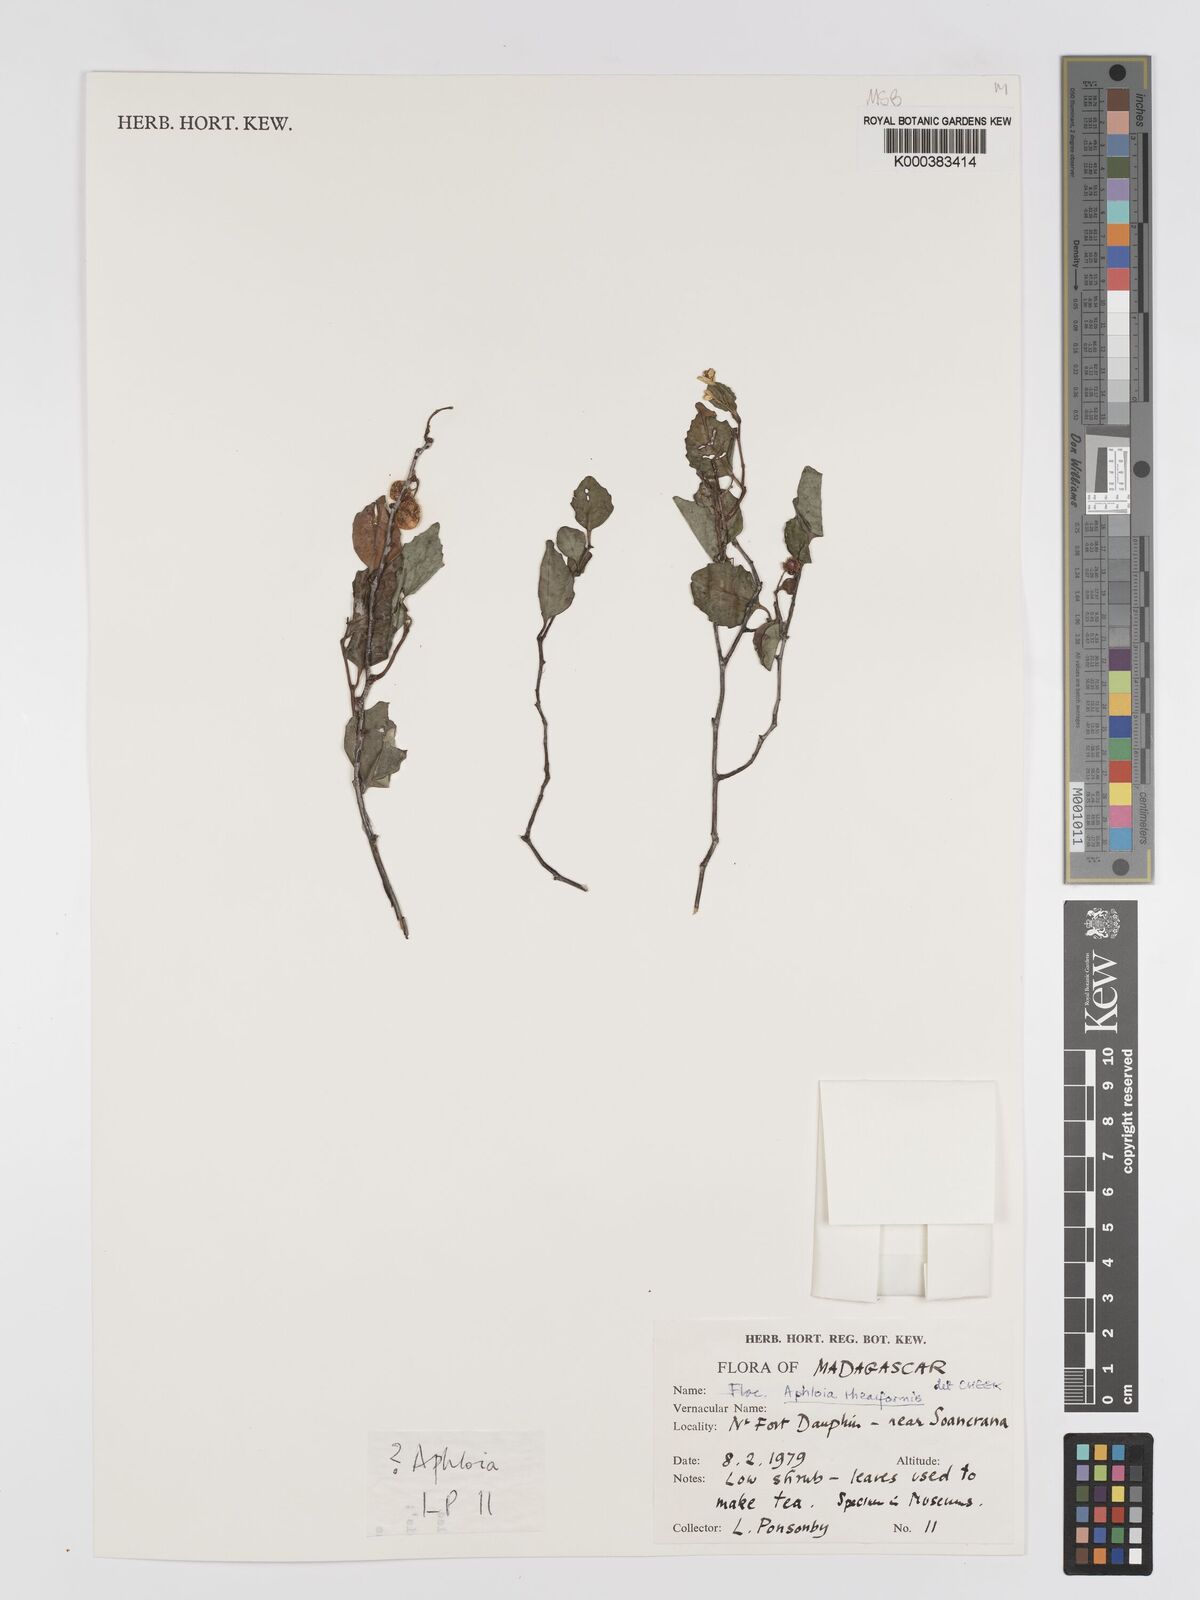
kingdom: Plantae
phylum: Tracheophyta
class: Magnoliopsida
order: Crossosomatales
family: Aphloiaceae
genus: Aphloia
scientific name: Aphloia theiformis
